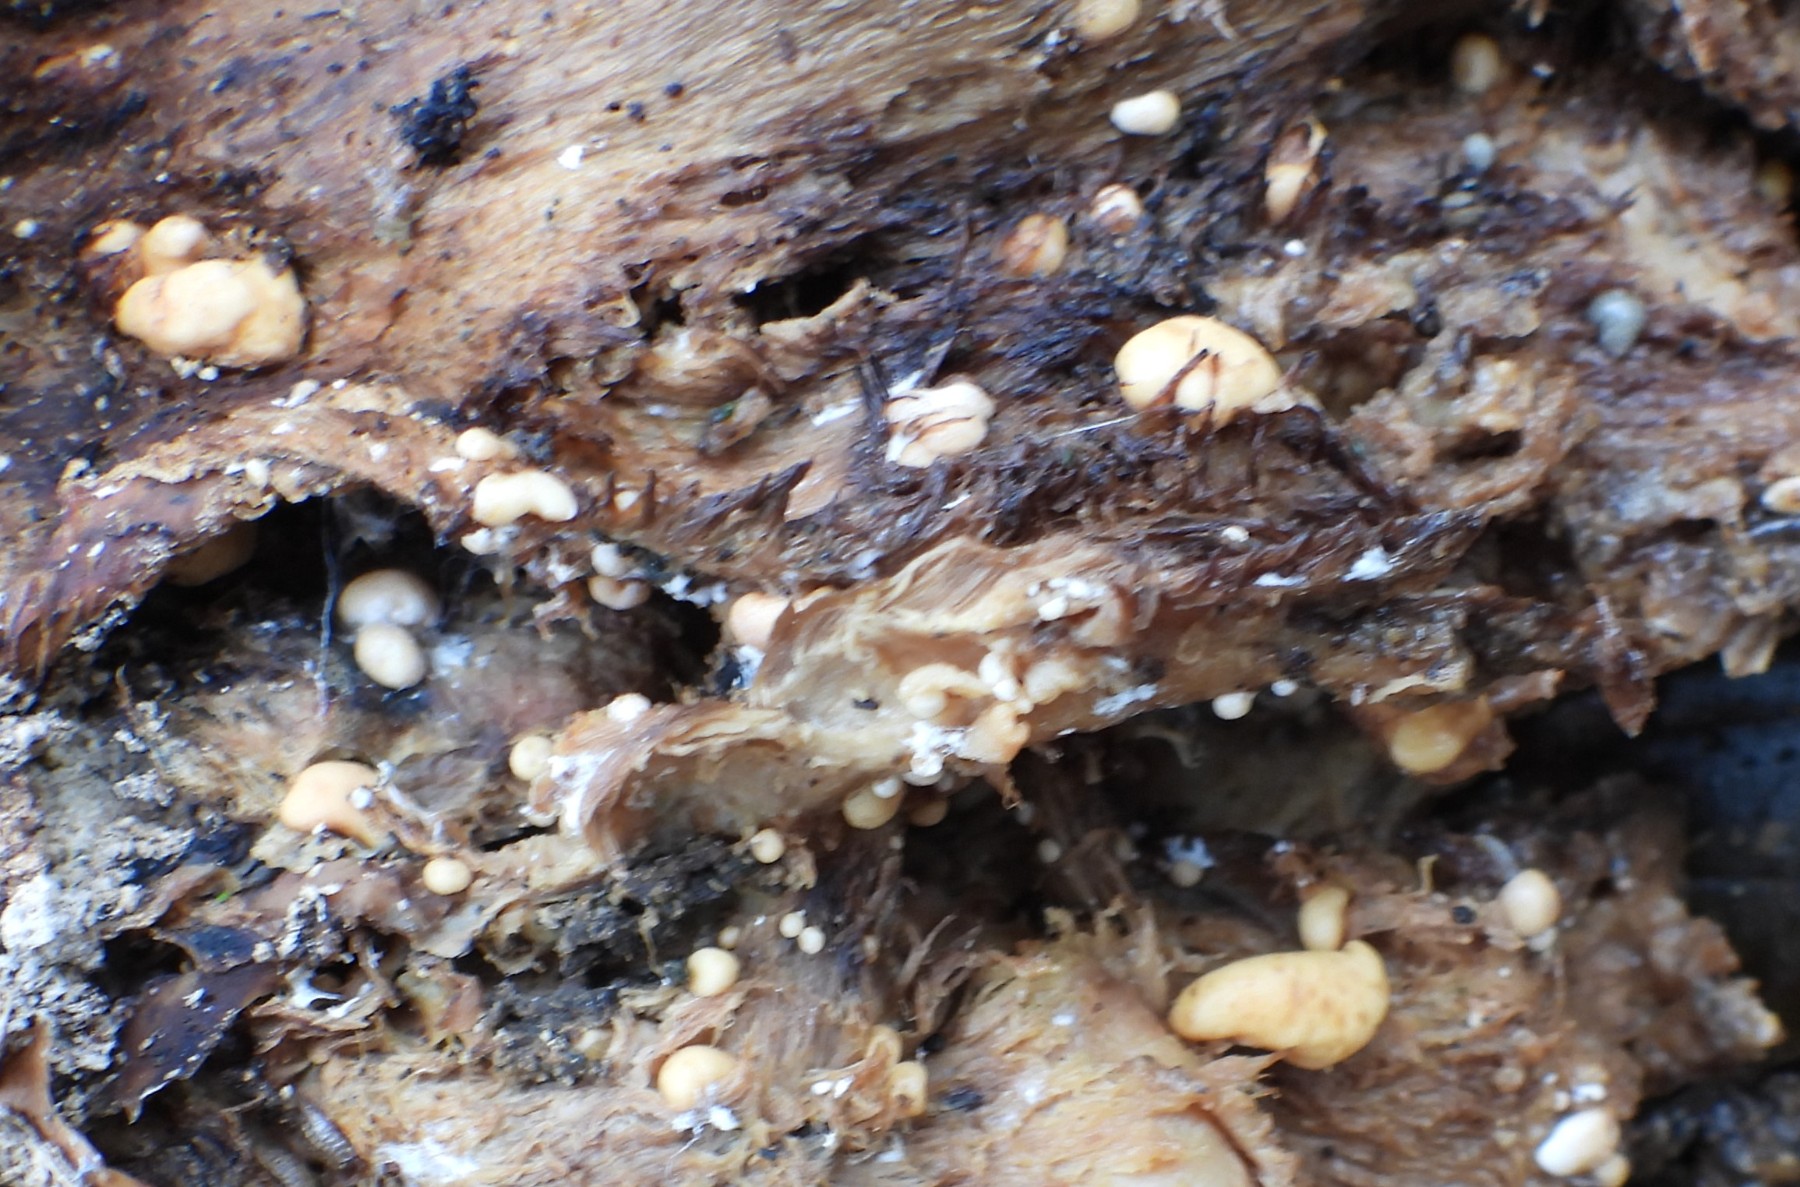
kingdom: Fungi
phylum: Basidiomycota
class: Agaricomycetes
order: Agaricales
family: Tricholomataceae
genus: Collybia
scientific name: Collybia cookei
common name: gulknoldet lighat
